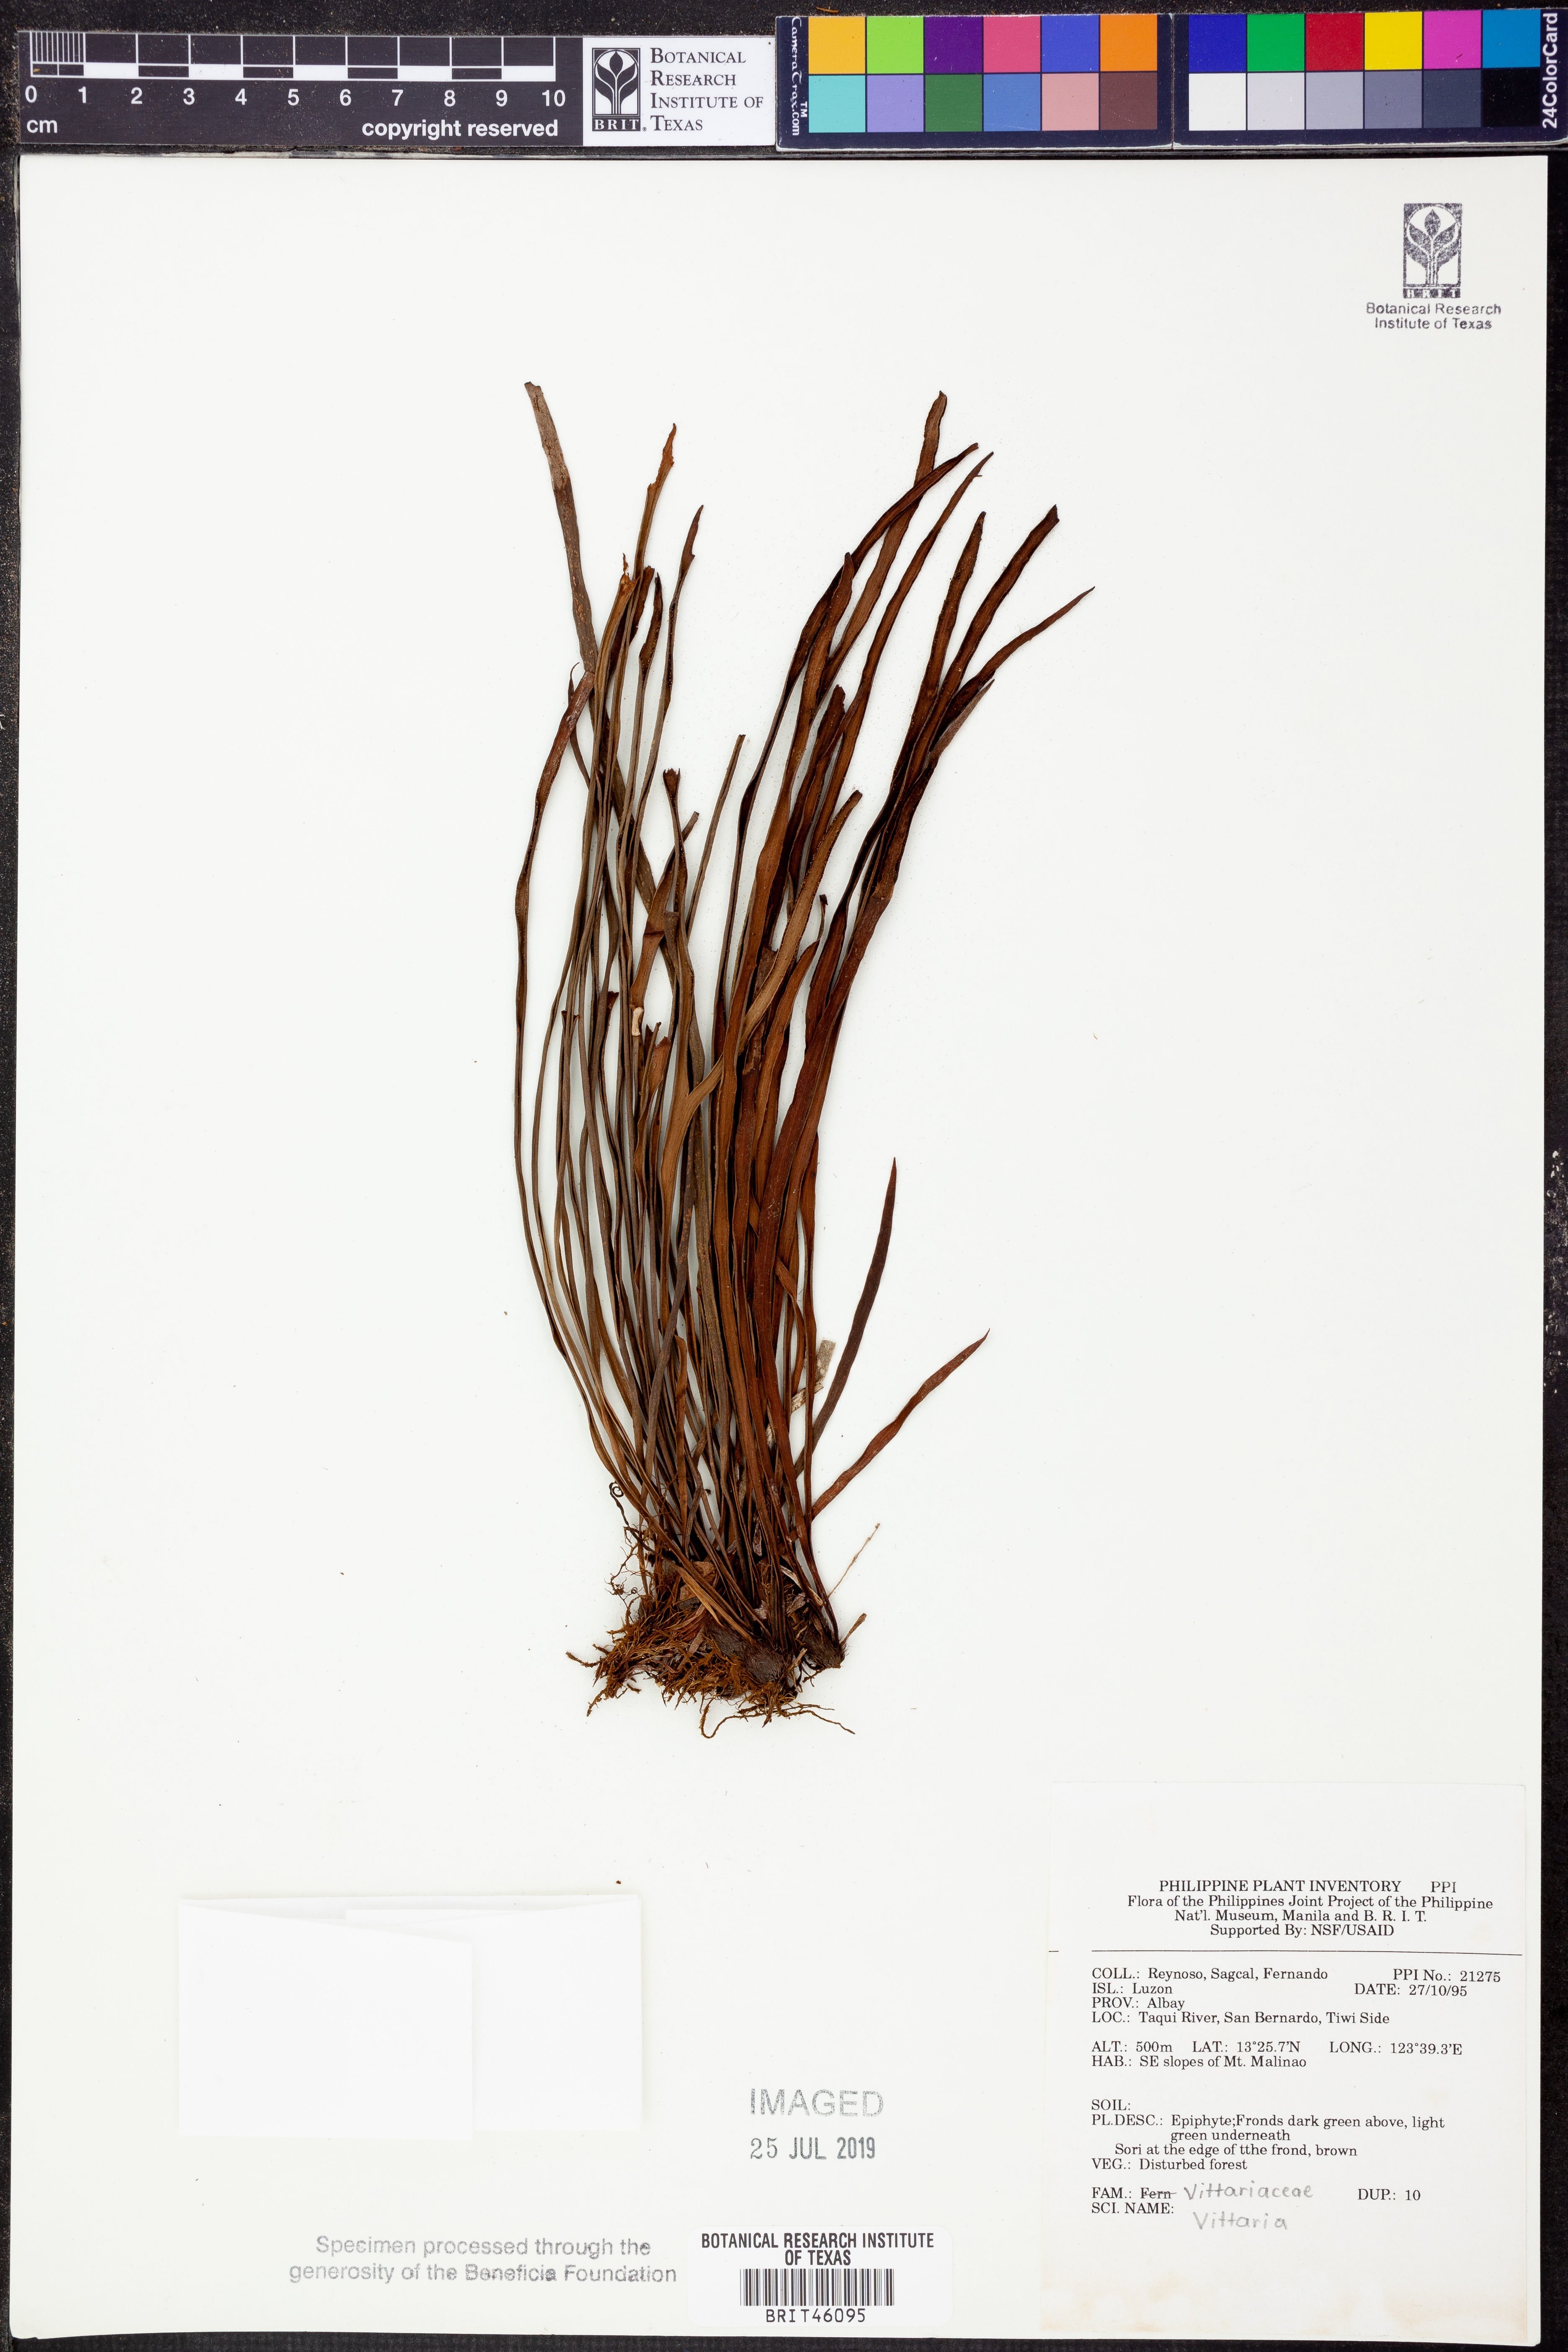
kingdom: Plantae
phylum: Tracheophyta
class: Polypodiopsida
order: Polypodiales
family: Pteridaceae
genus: Vittaria
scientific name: Vittaria
